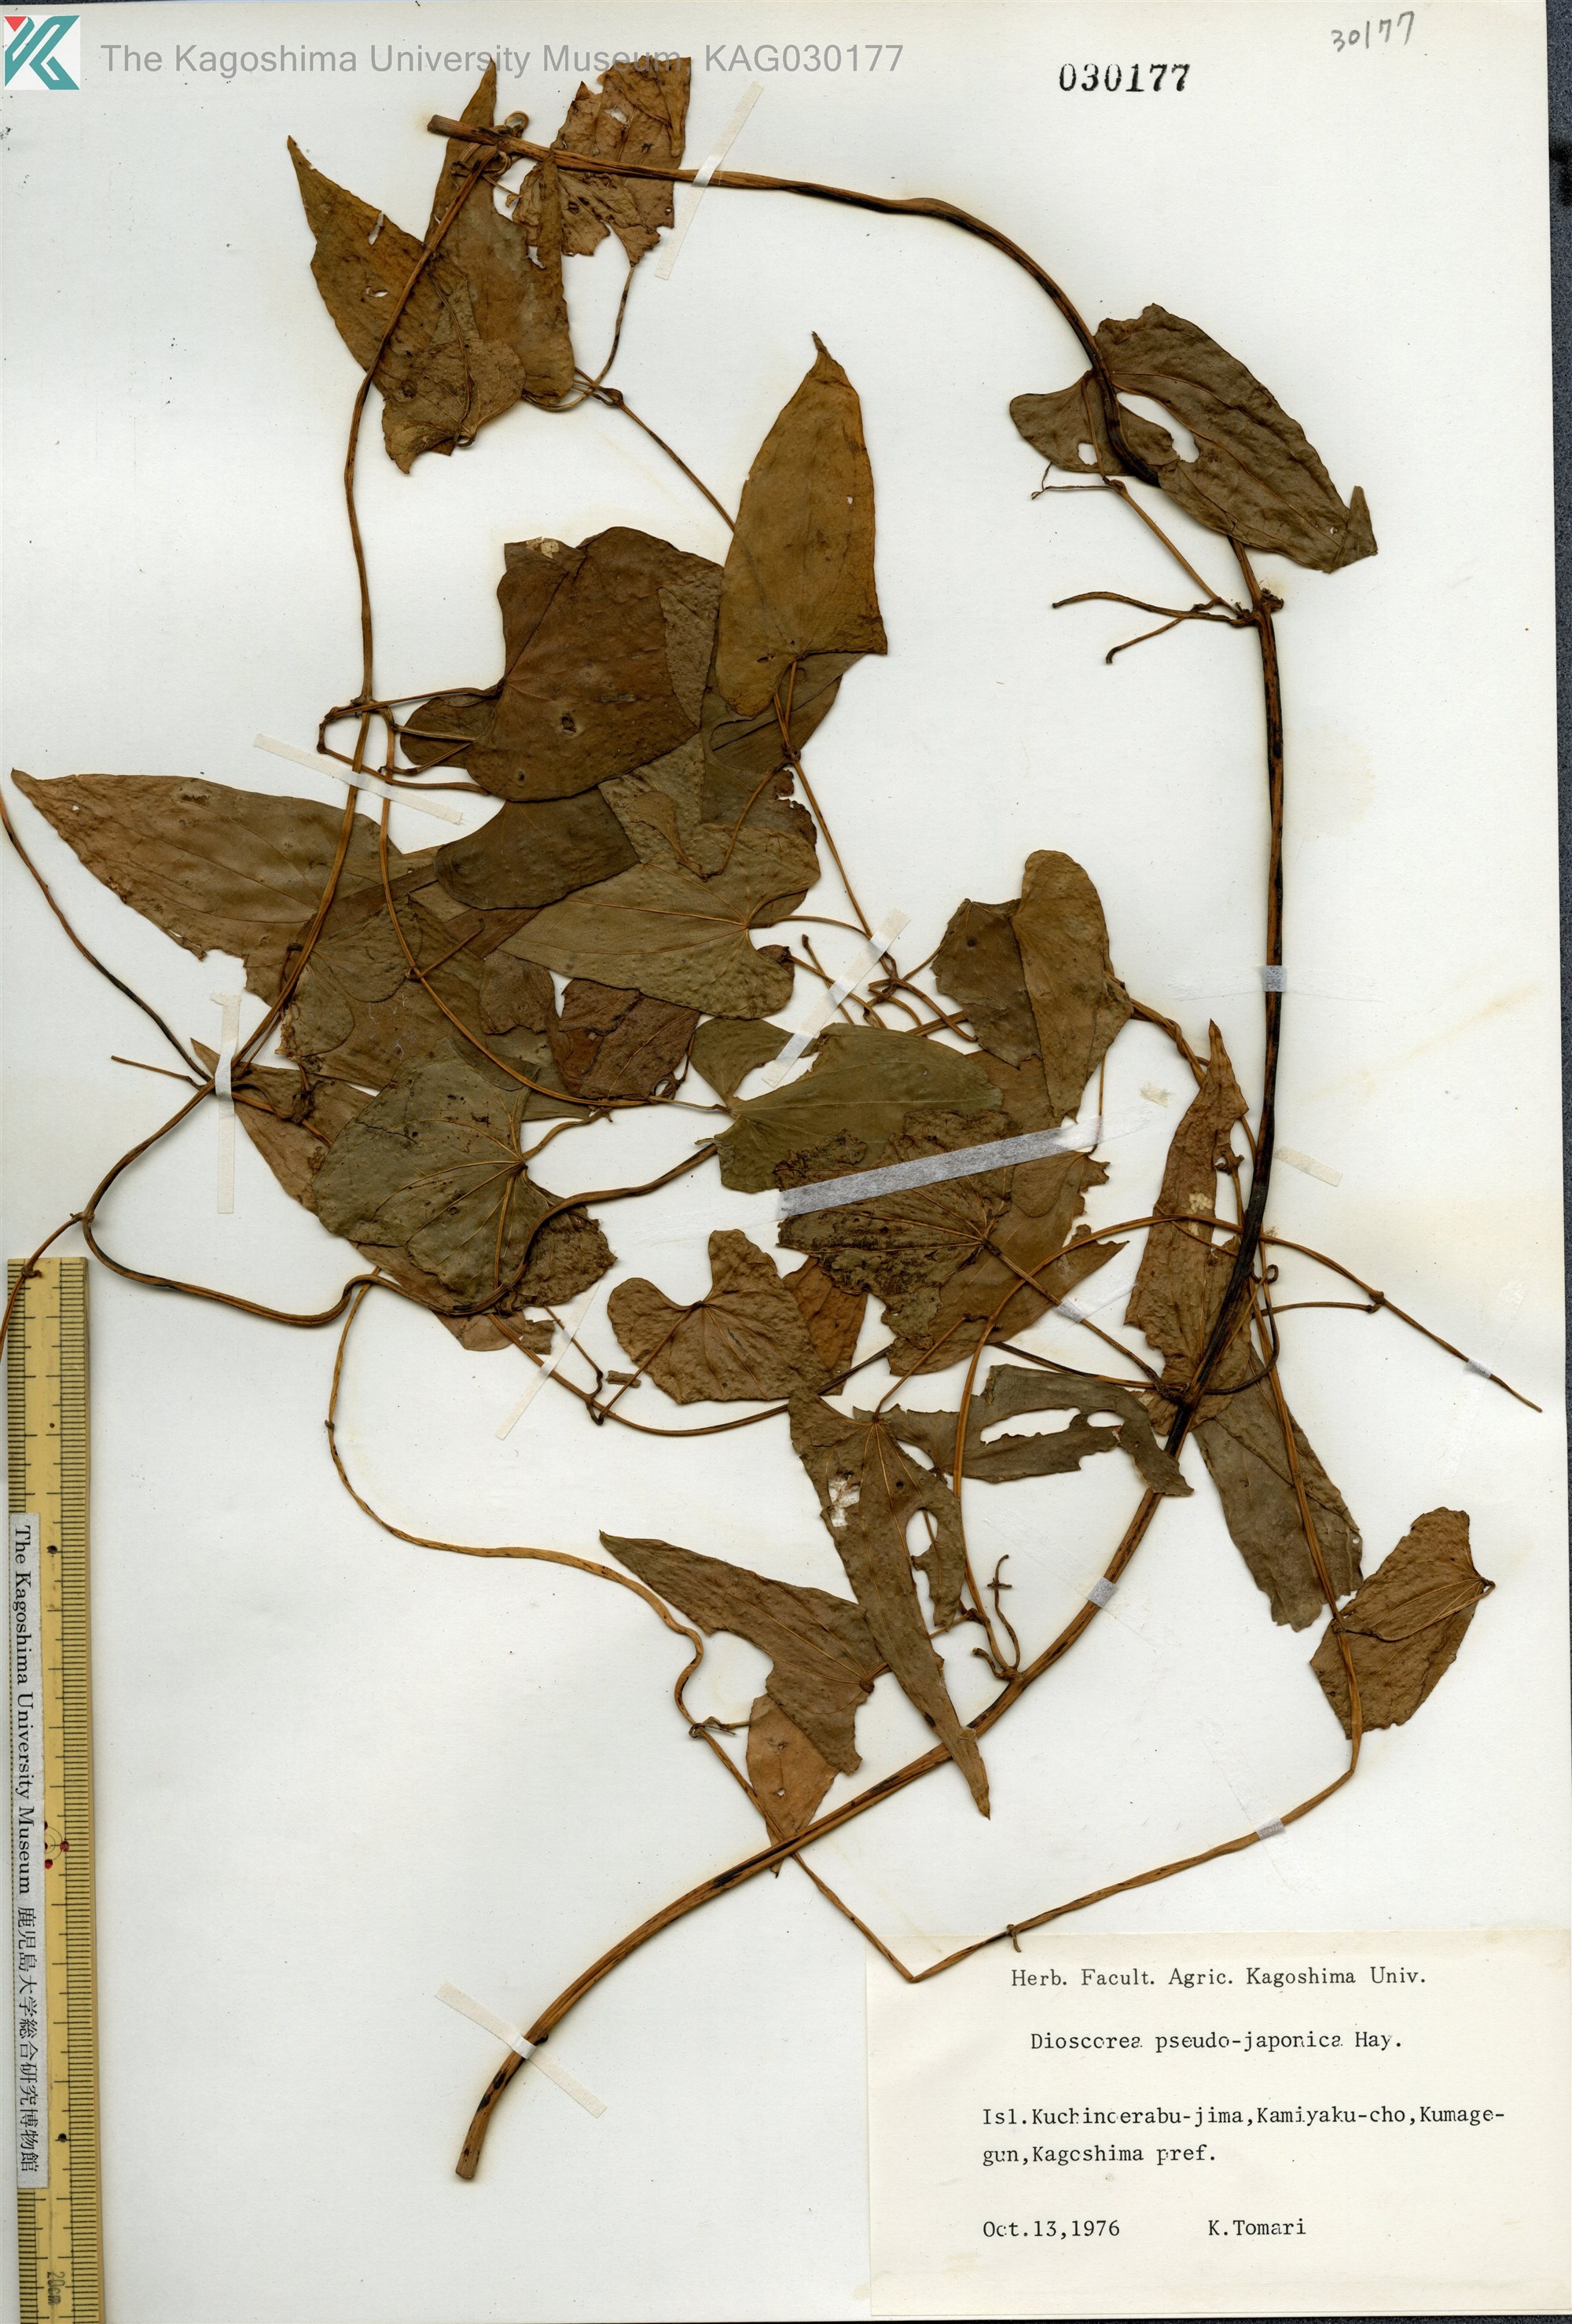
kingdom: Plantae
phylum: Tracheophyta
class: Liliopsida
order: Dioscoreales
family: Dioscoreaceae
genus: Dioscorea
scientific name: Dioscorea pseudojaponica
